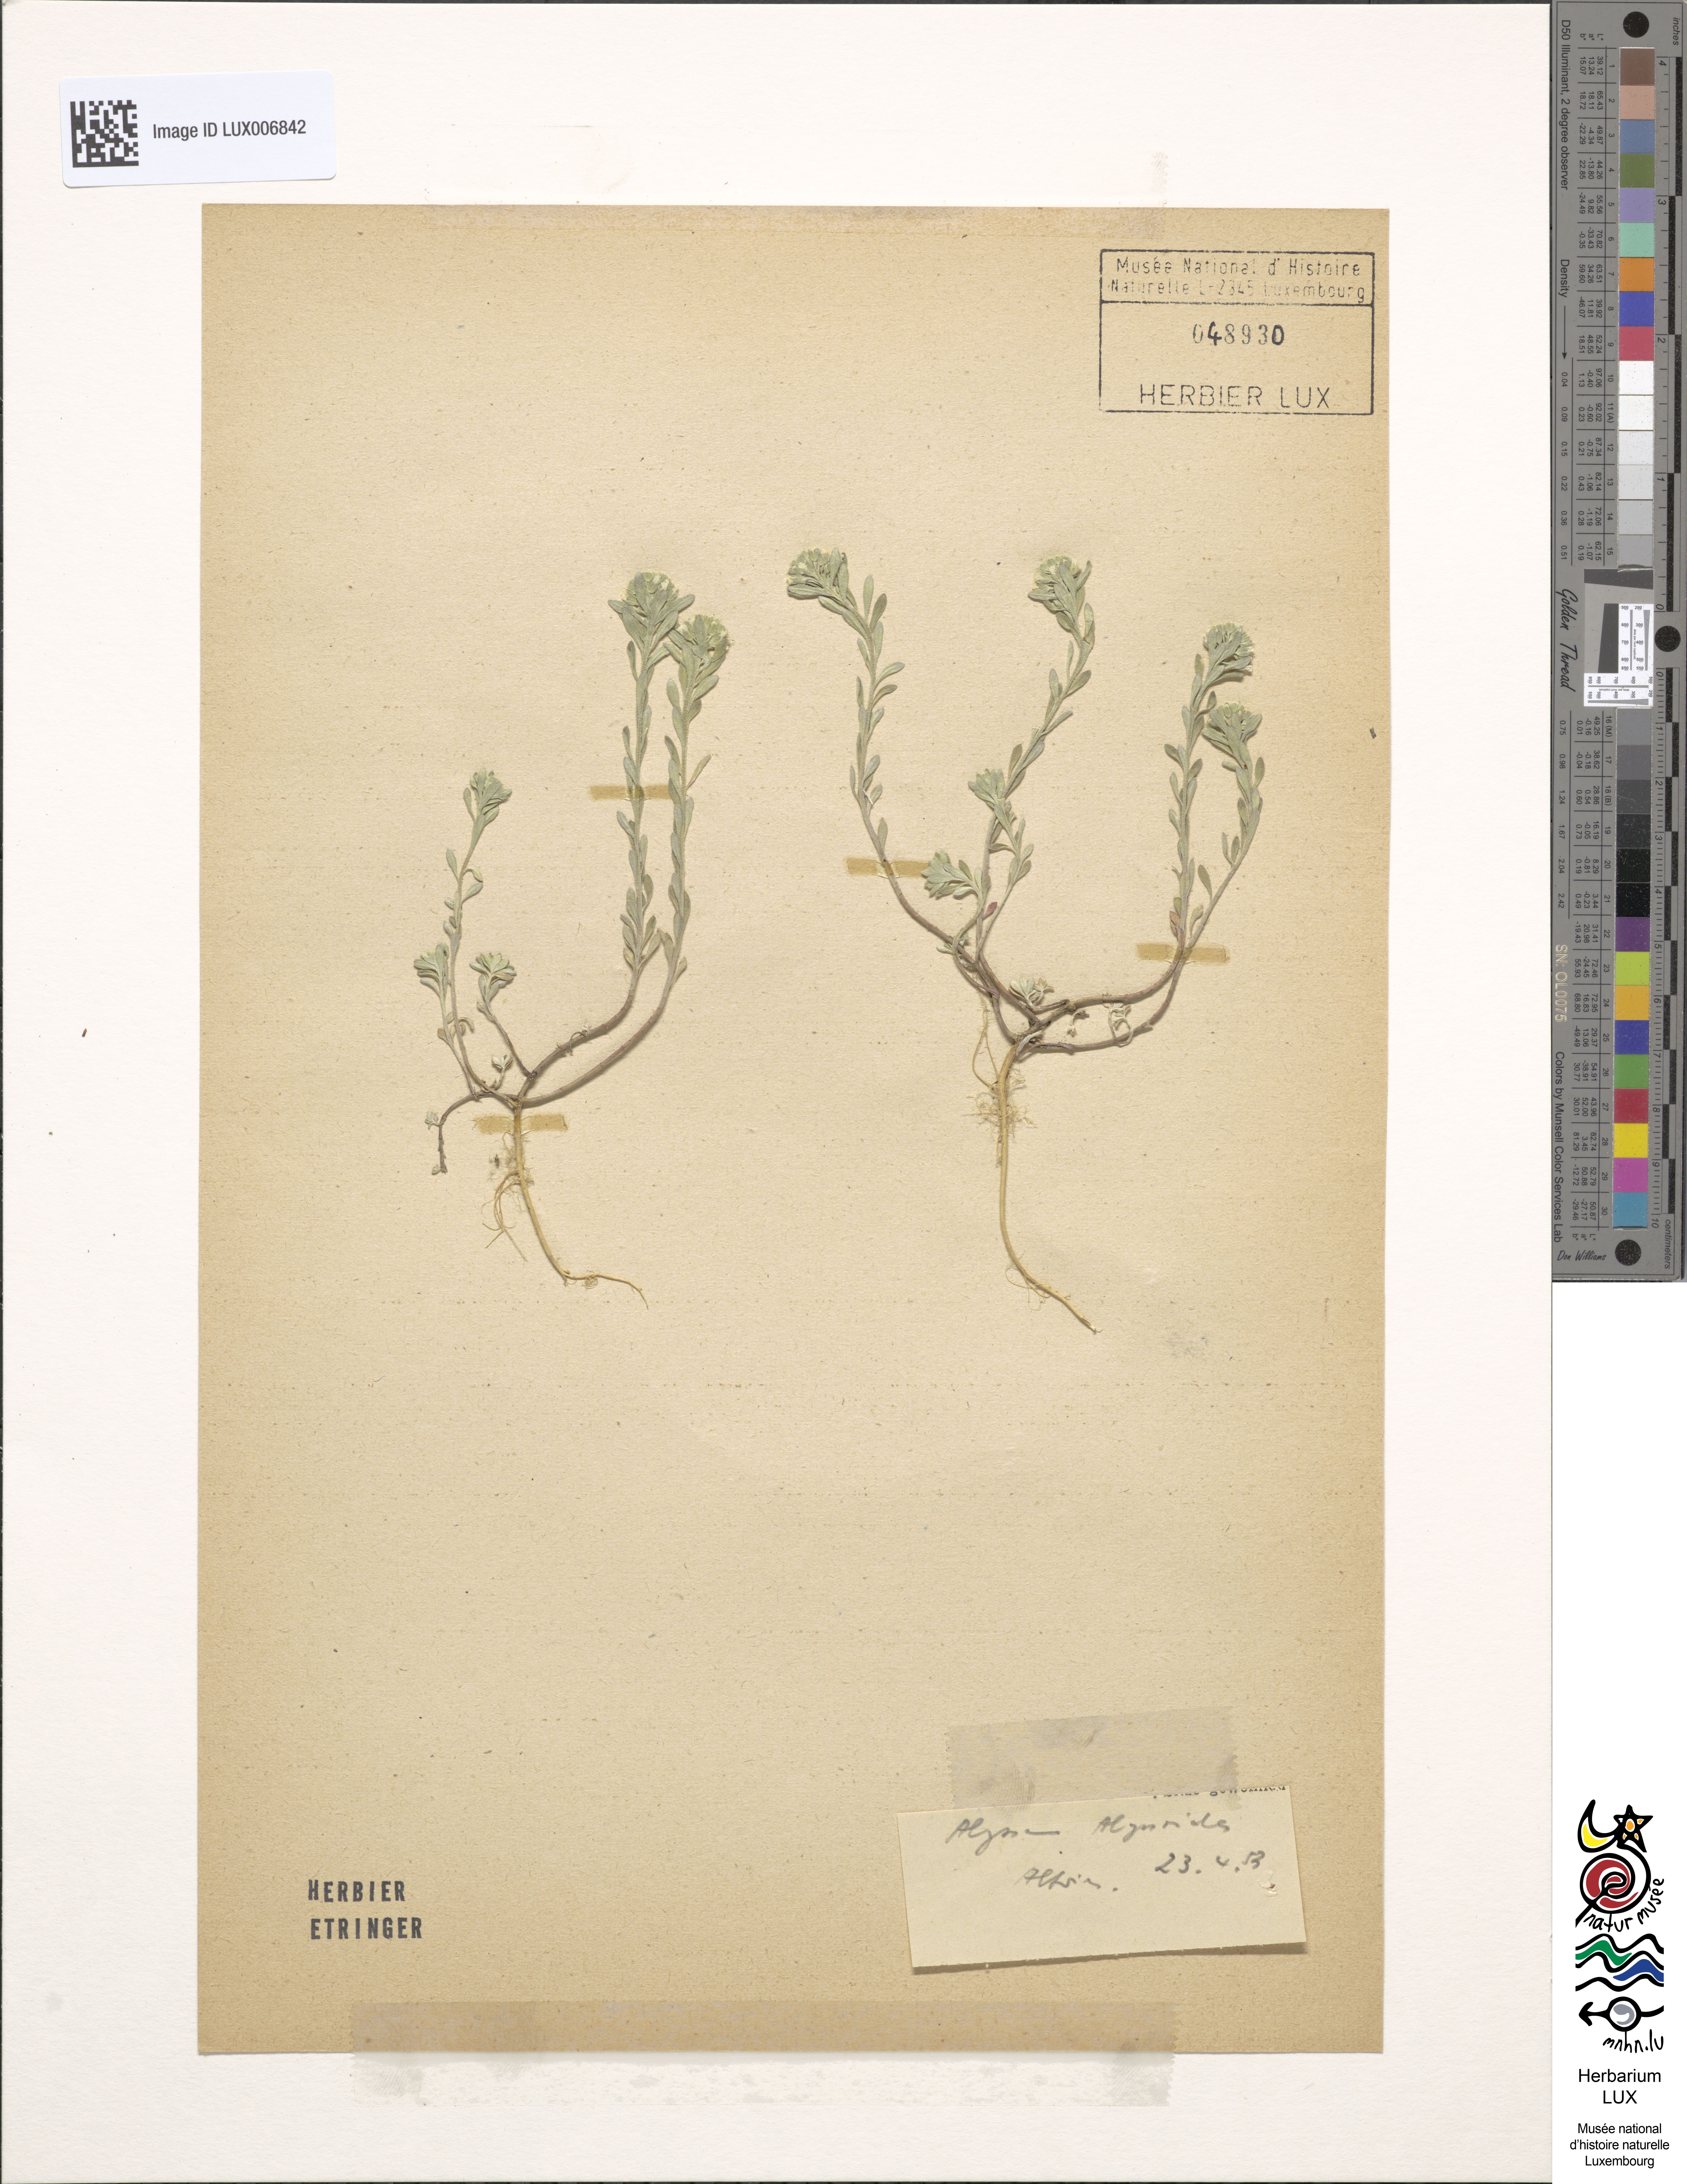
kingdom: Plantae
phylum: Tracheophyta
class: Magnoliopsida
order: Brassicales
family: Brassicaceae
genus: Alyssum
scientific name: Alyssum alyssoides
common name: Small alison
